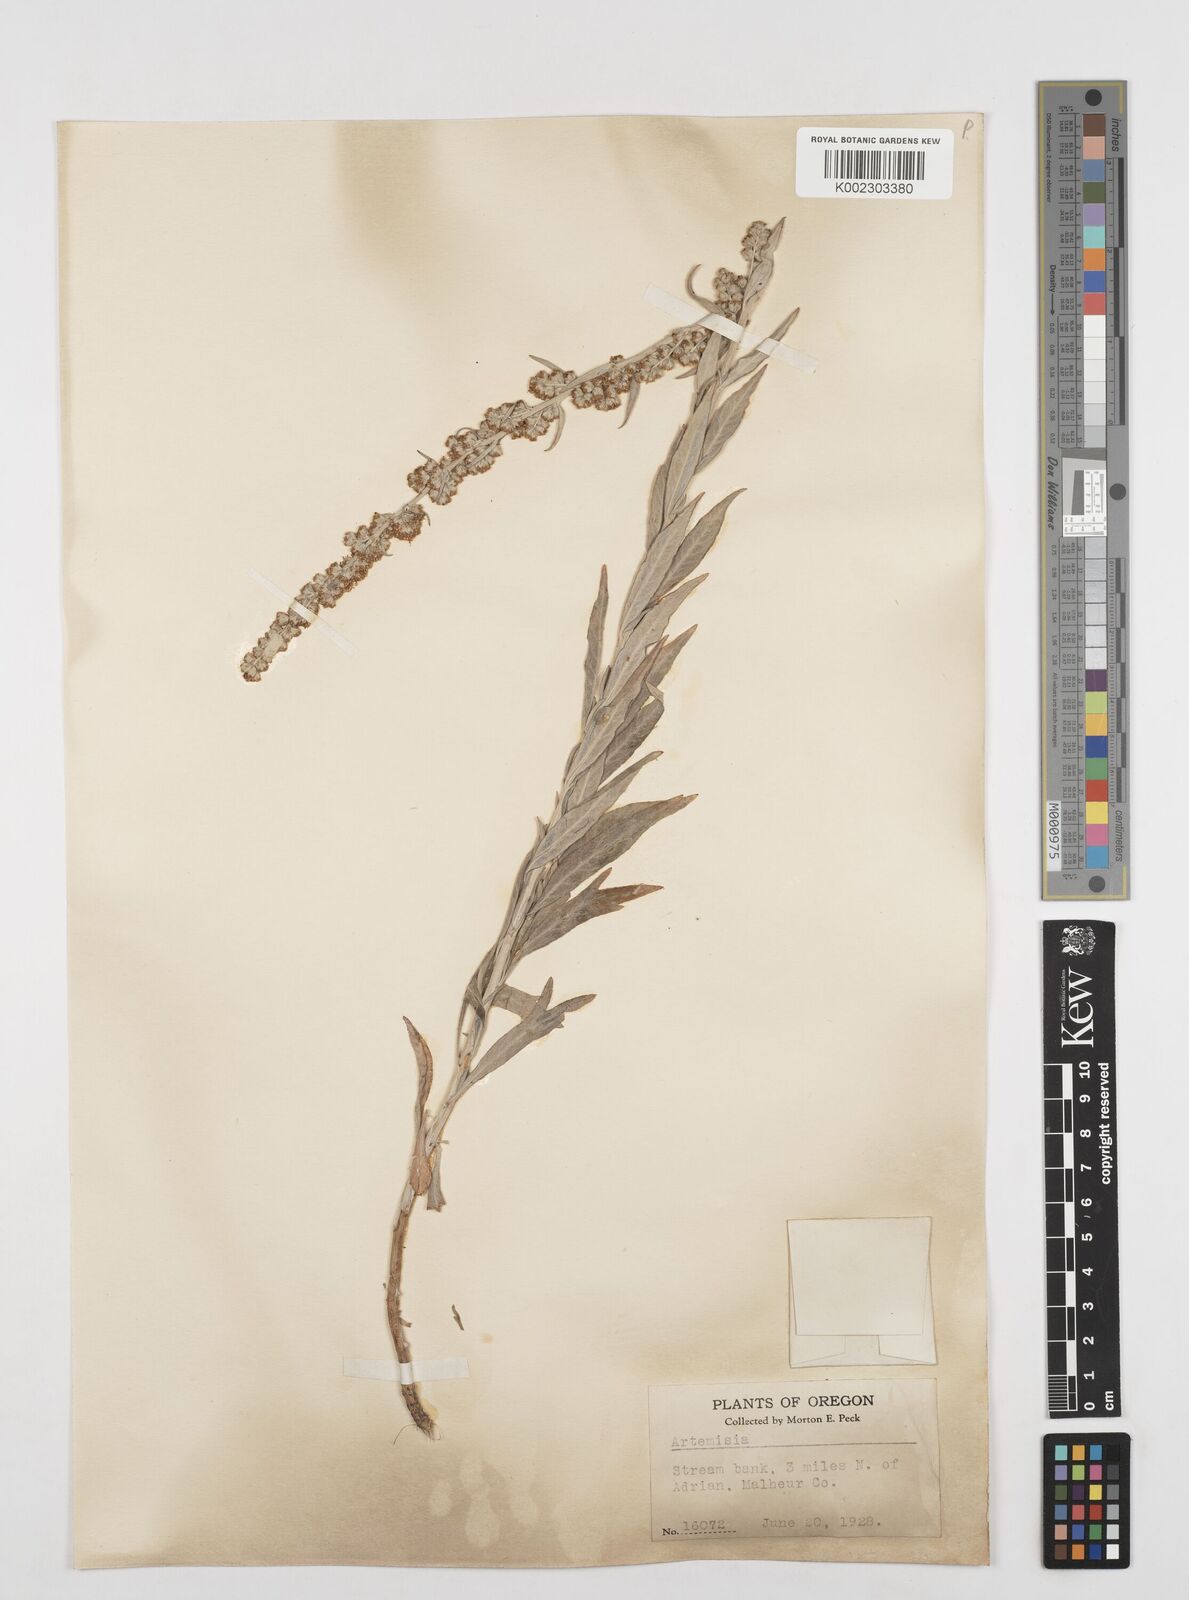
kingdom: Plantae
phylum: Tracheophyta
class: Magnoliopsida
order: Asterales
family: Asteraceae
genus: Artemisia
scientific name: Artemisia
